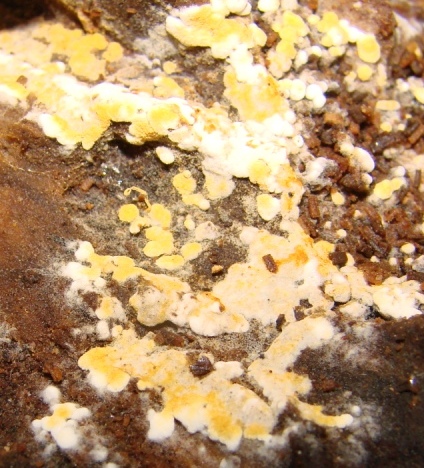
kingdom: Fungi
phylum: Basidiomycota
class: Agaricomycetes
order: Cantharellales
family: Botryobasidiaceae
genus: Botryobasidium
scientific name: Botryobasidium aureum
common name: gylden spindhinde
